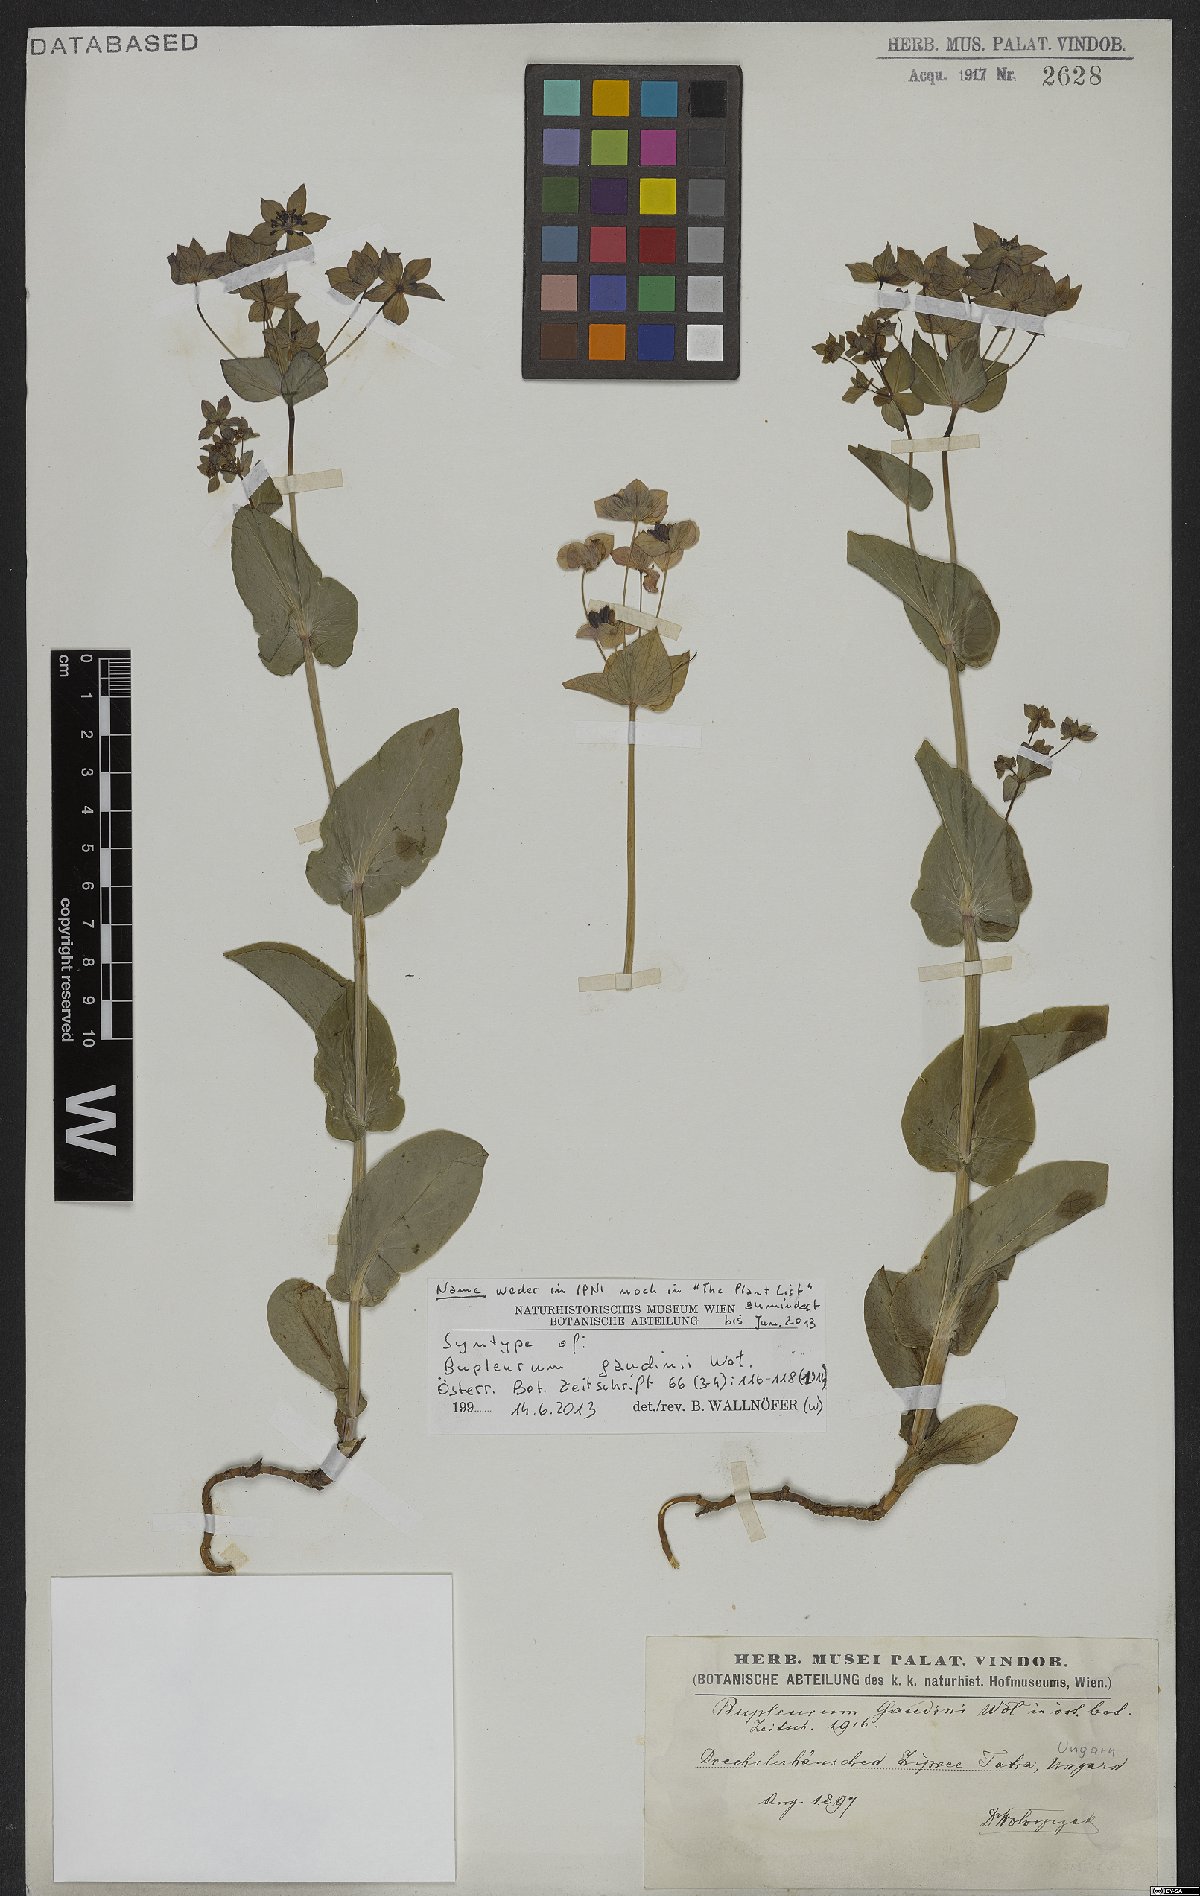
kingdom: Plantae
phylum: Tracheophyta
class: Magnoliopsida
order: Apiales
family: Apiaceae
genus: Bupleurum
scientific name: Bupleurum subovatum
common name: False thorow-wax
